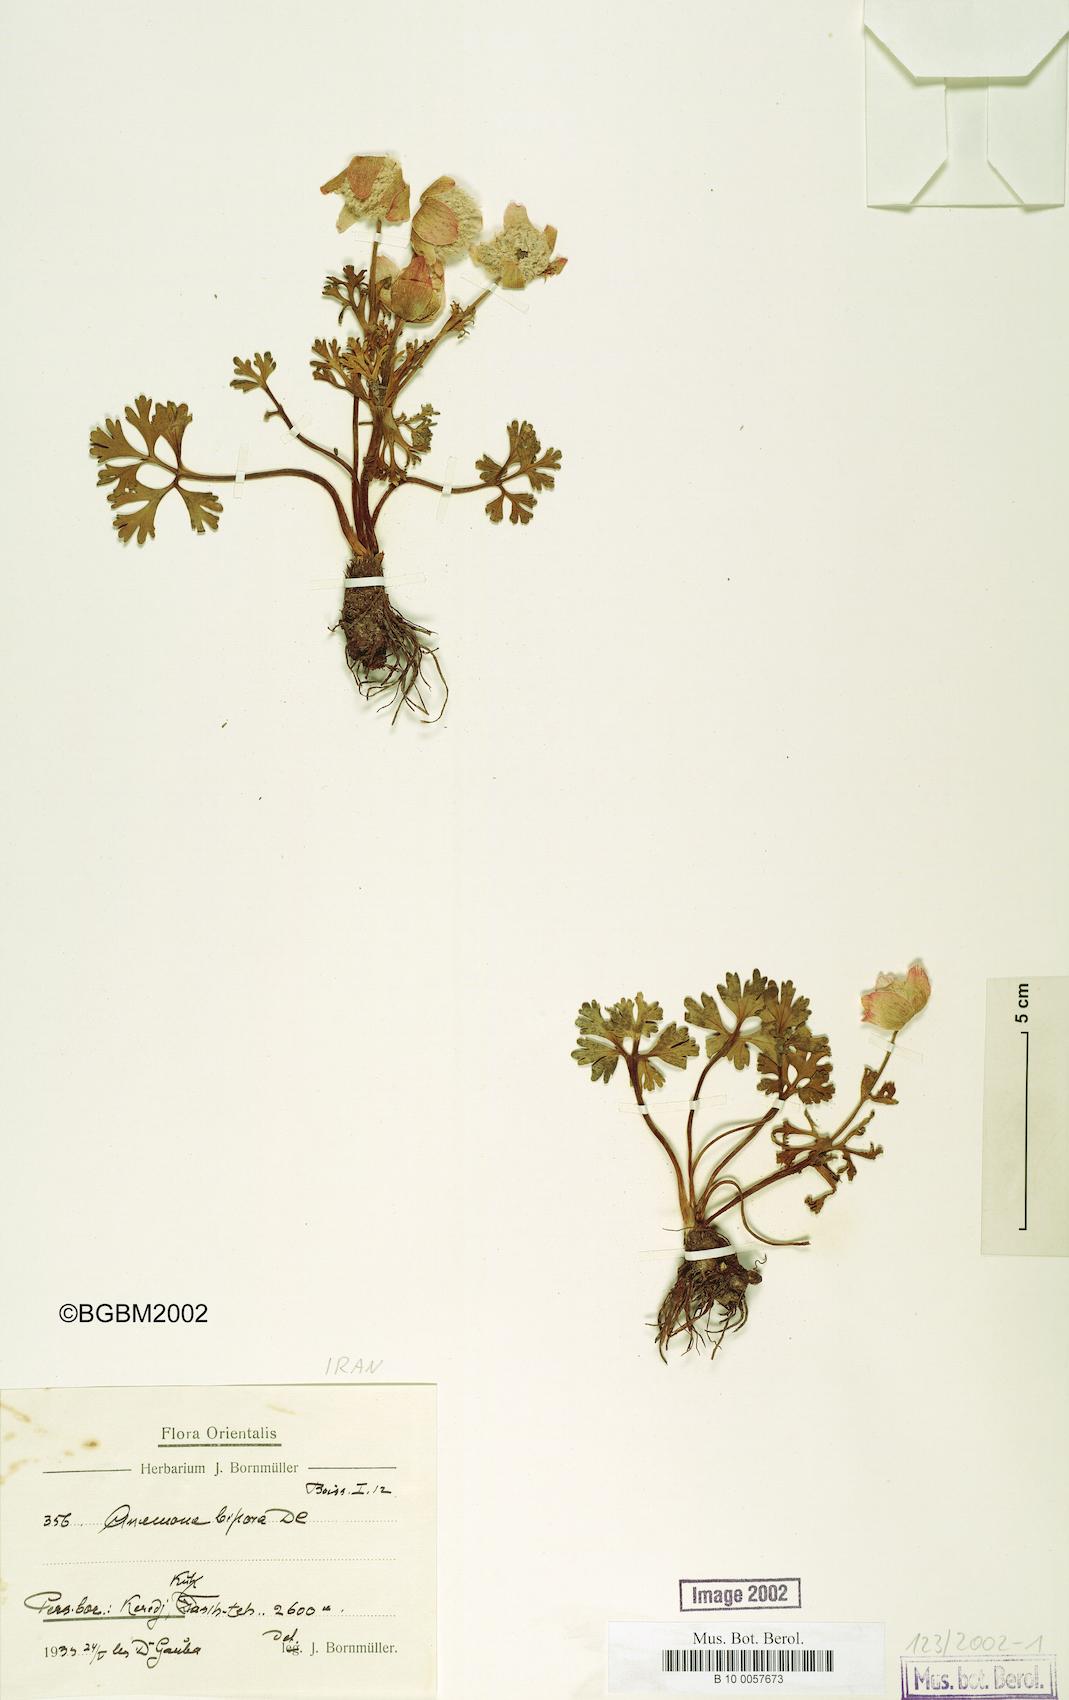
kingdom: Plantae
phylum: Tracheophyta
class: Magnoliopsida
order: Ranunculales
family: Ranunculaceae
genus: Anemone
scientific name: Anemone biflora
